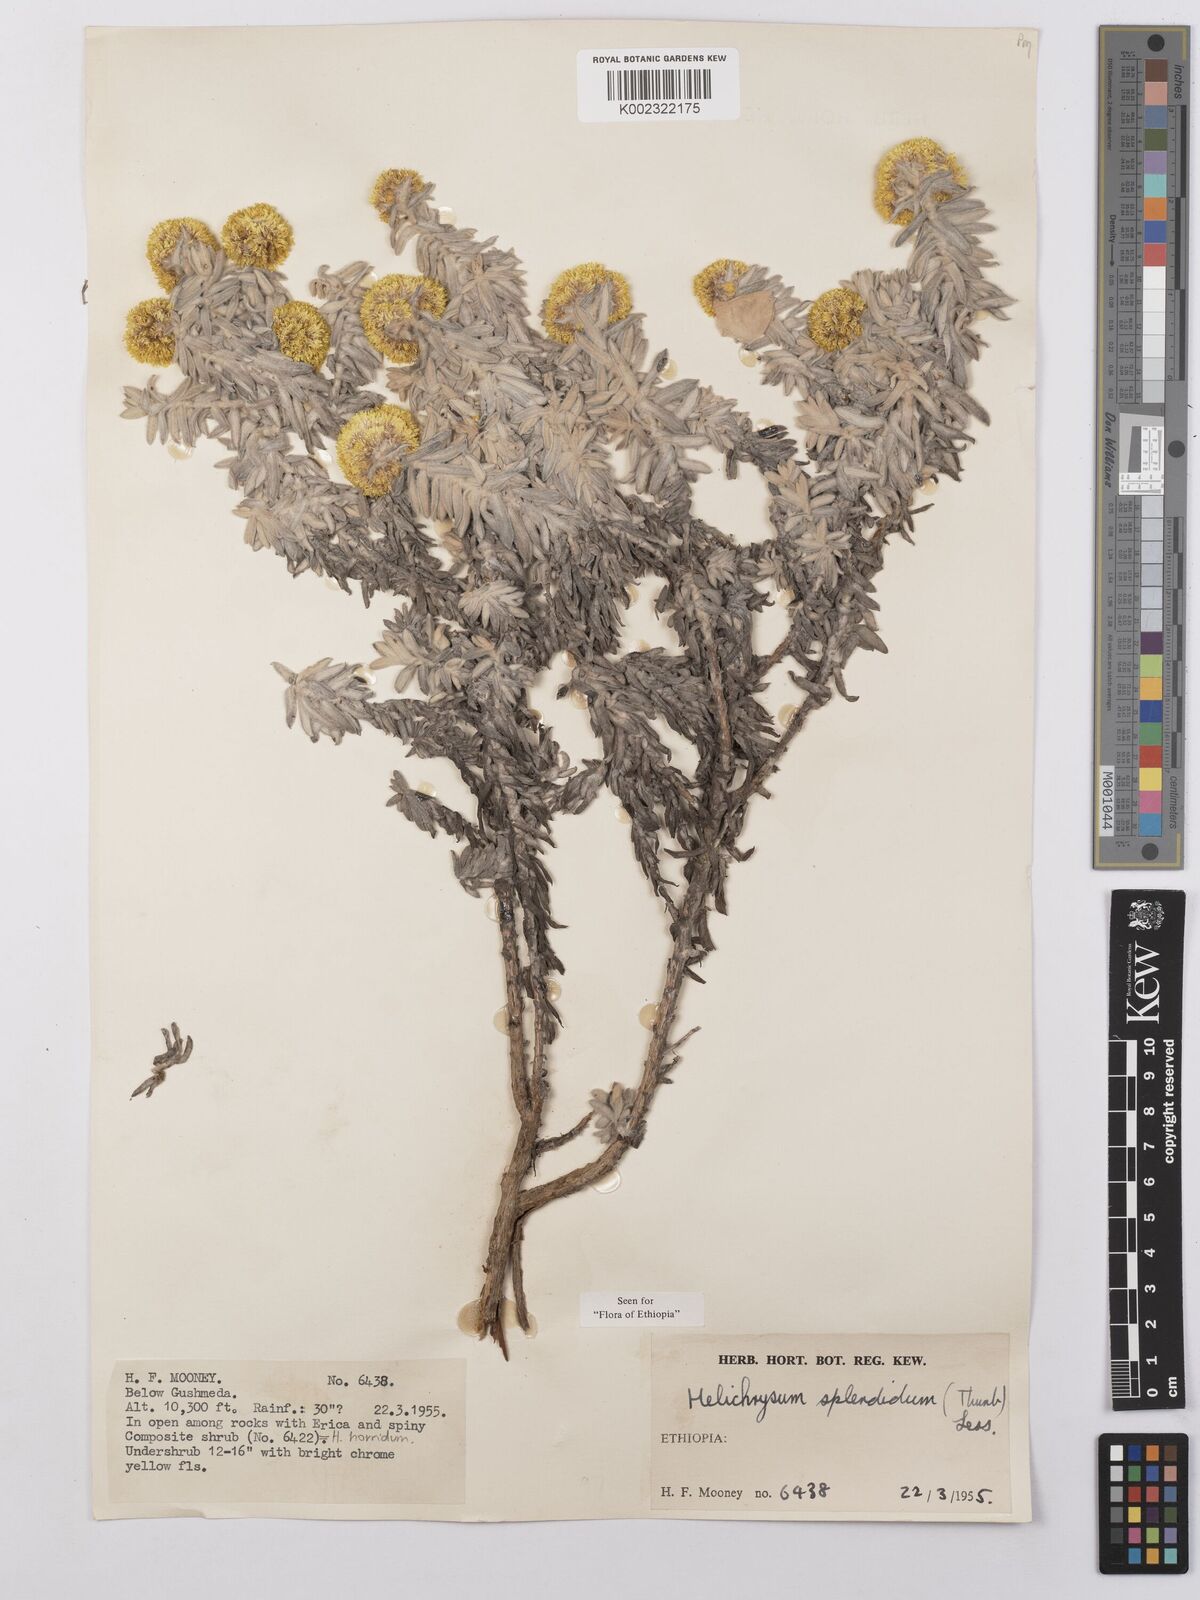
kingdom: Plantae
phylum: Tracheophyta
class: Magnoliopsida
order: Asterales
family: Asteraceae
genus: Helichrysum
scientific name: Helichrysum splendidum
